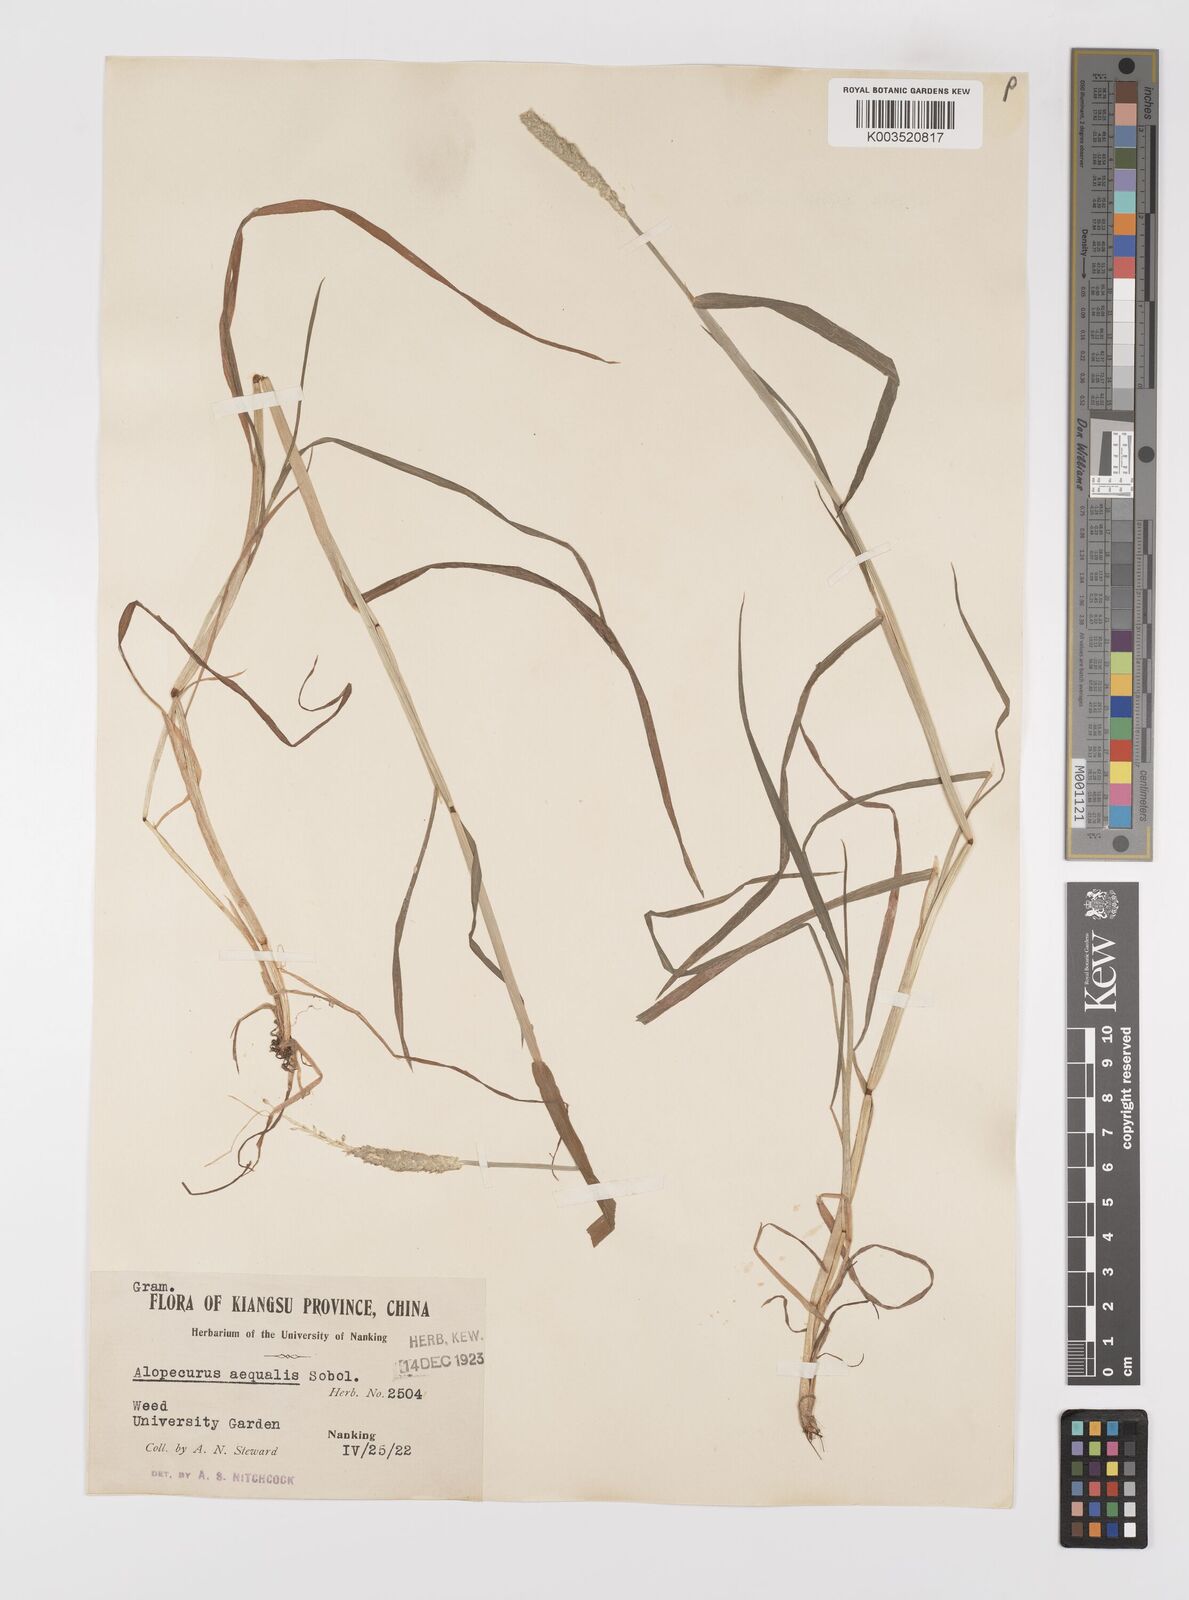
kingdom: Plantae
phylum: Tracheophyta
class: Liliopsida
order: Poales
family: Poaceae
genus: Alopecurus
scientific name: Alopecurus aequalis
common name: Orange foxtail
